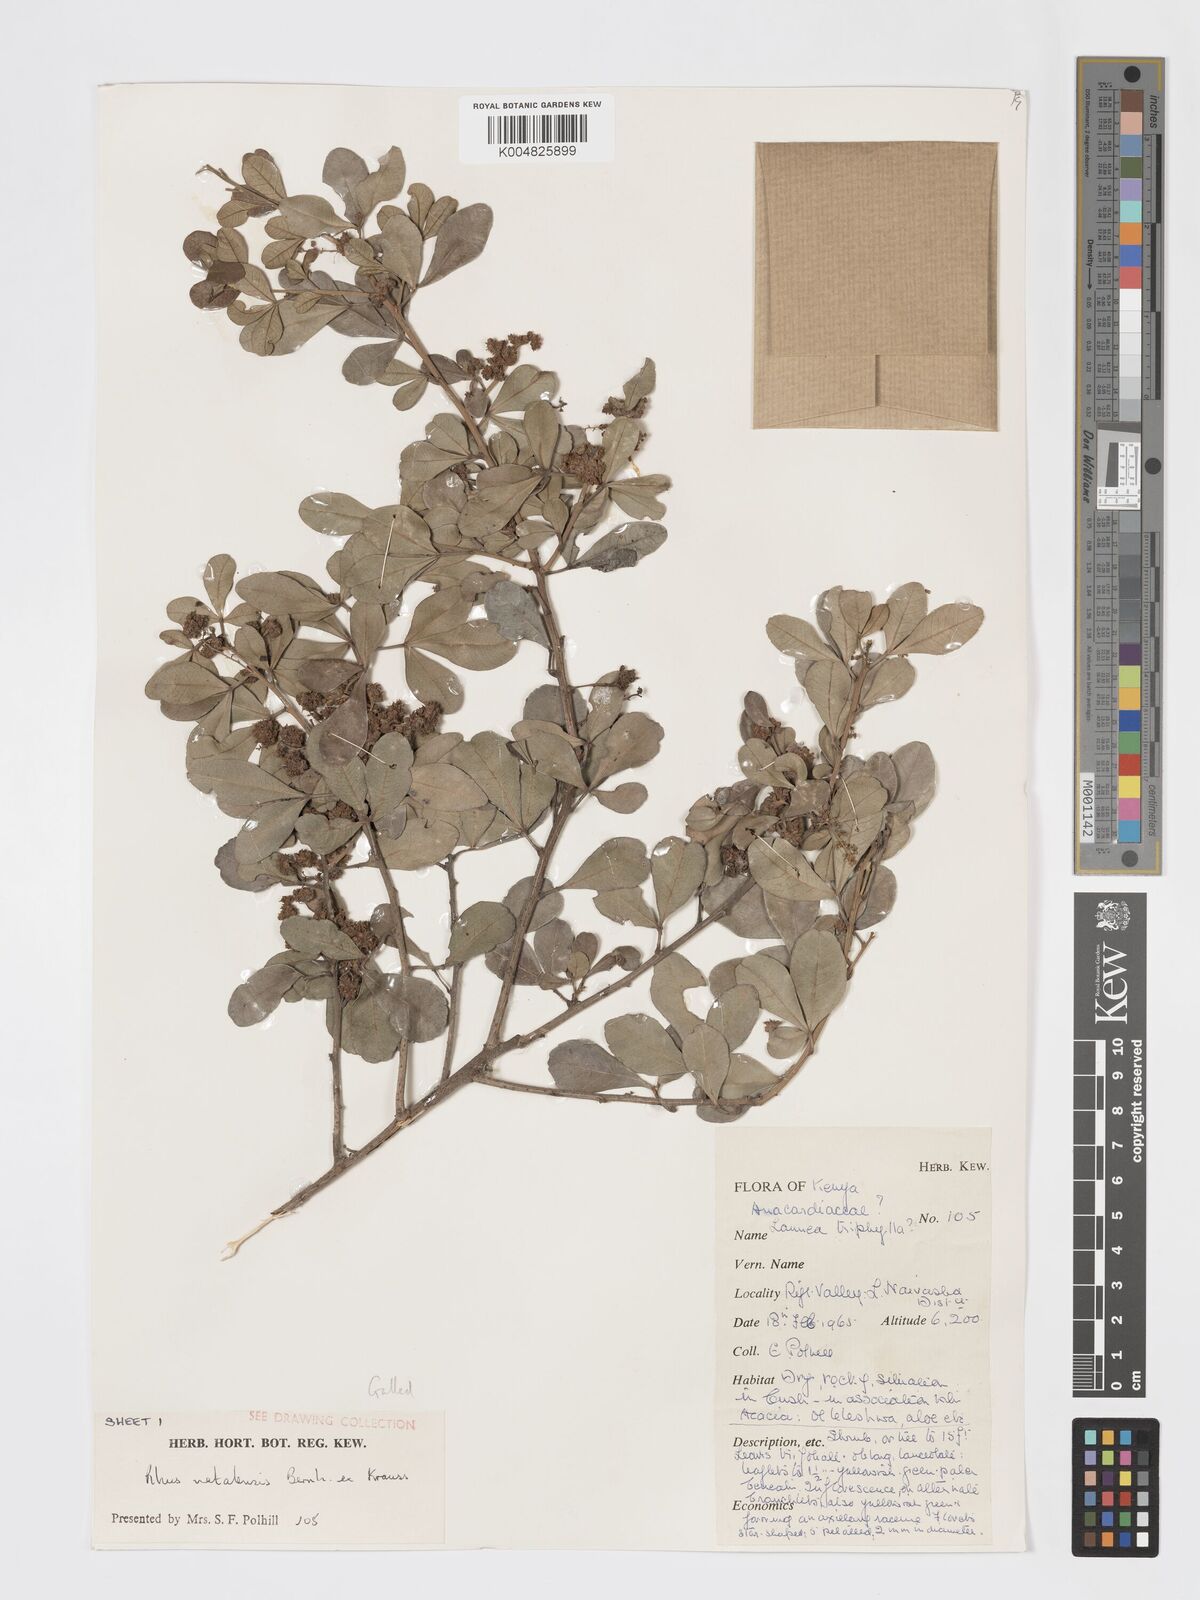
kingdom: Plantae
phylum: Tracheophyta
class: Magnoliopsida
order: Sapindales
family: Anacardiaceae
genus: Searsia
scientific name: Searsia natalensis
